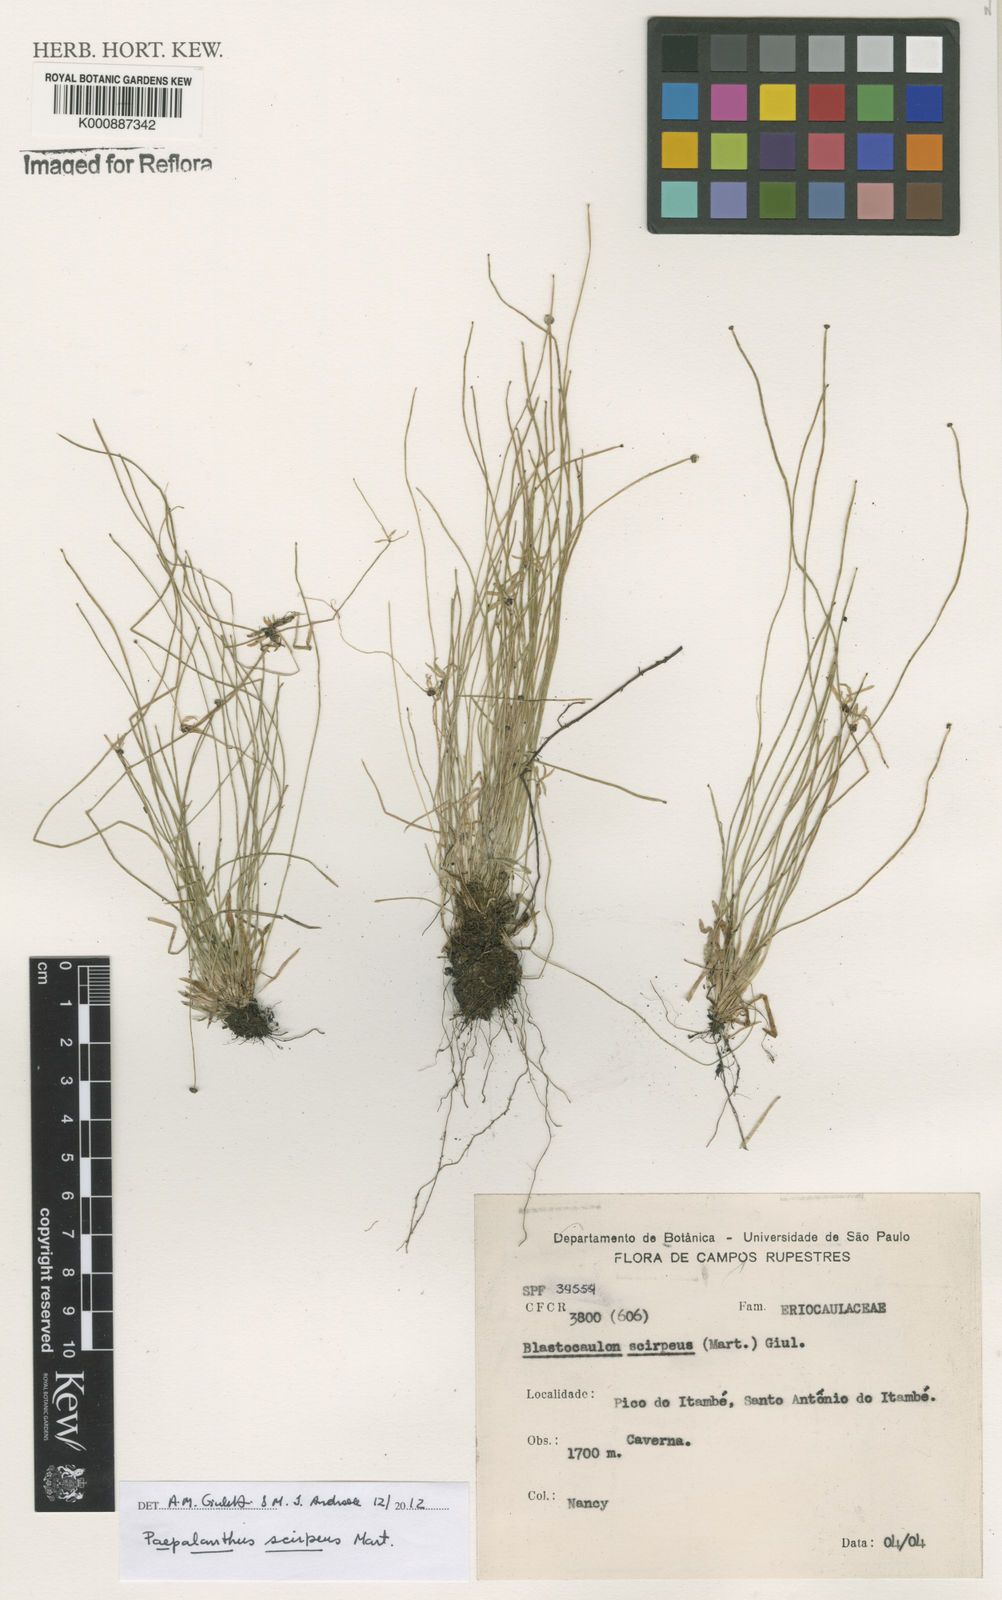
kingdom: Plantae
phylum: Tracheophyta
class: Liliopsida
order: Poales
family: Eriocaulaceae
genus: Paepalanthus
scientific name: Paepalanthus scirpeus
